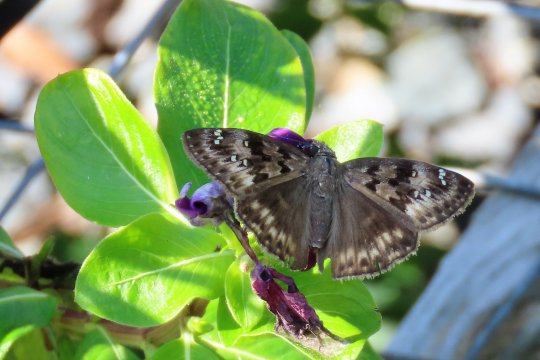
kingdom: Animalia
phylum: Arthropoda
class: Insecta
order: Lepidoptera
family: Hesperiidae
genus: Gesta
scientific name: Gesta
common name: Horace's Duskywing
